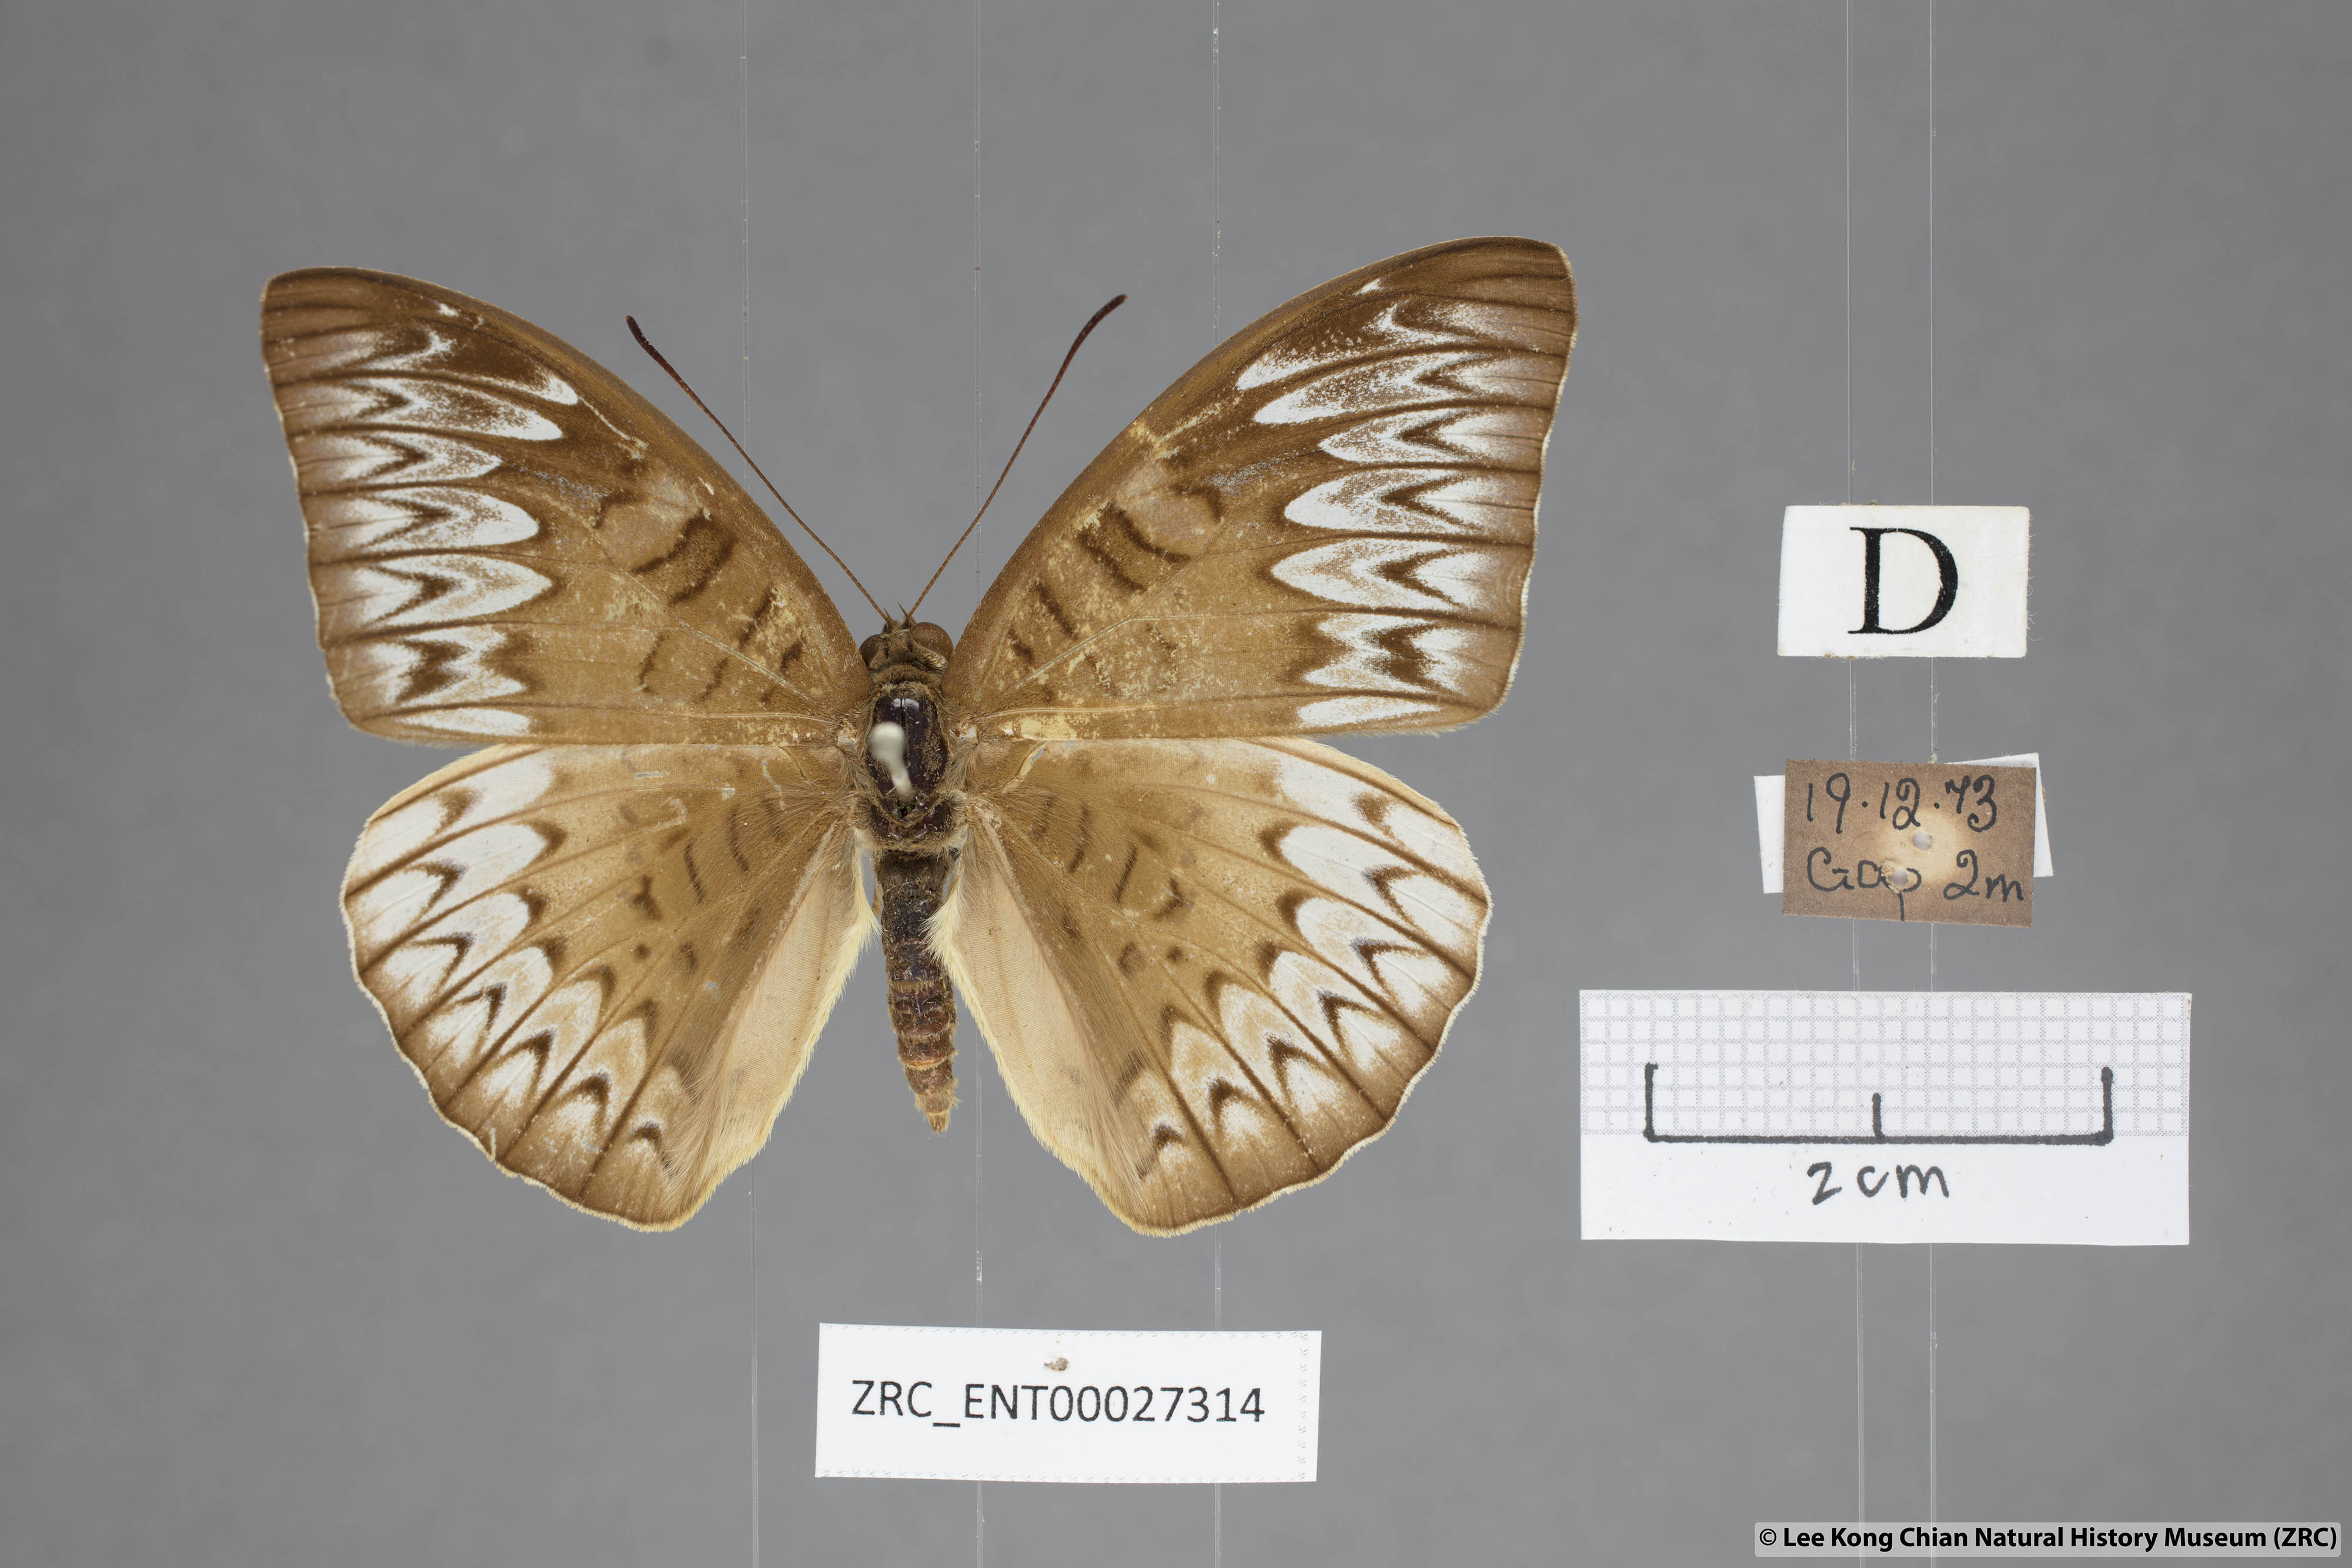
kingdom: Animalia
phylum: Arthropoda
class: Insecta
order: Lepidoptera
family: Nymphalidae
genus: Tanaecia
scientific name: Tanaecia pelea
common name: Malay viscount
